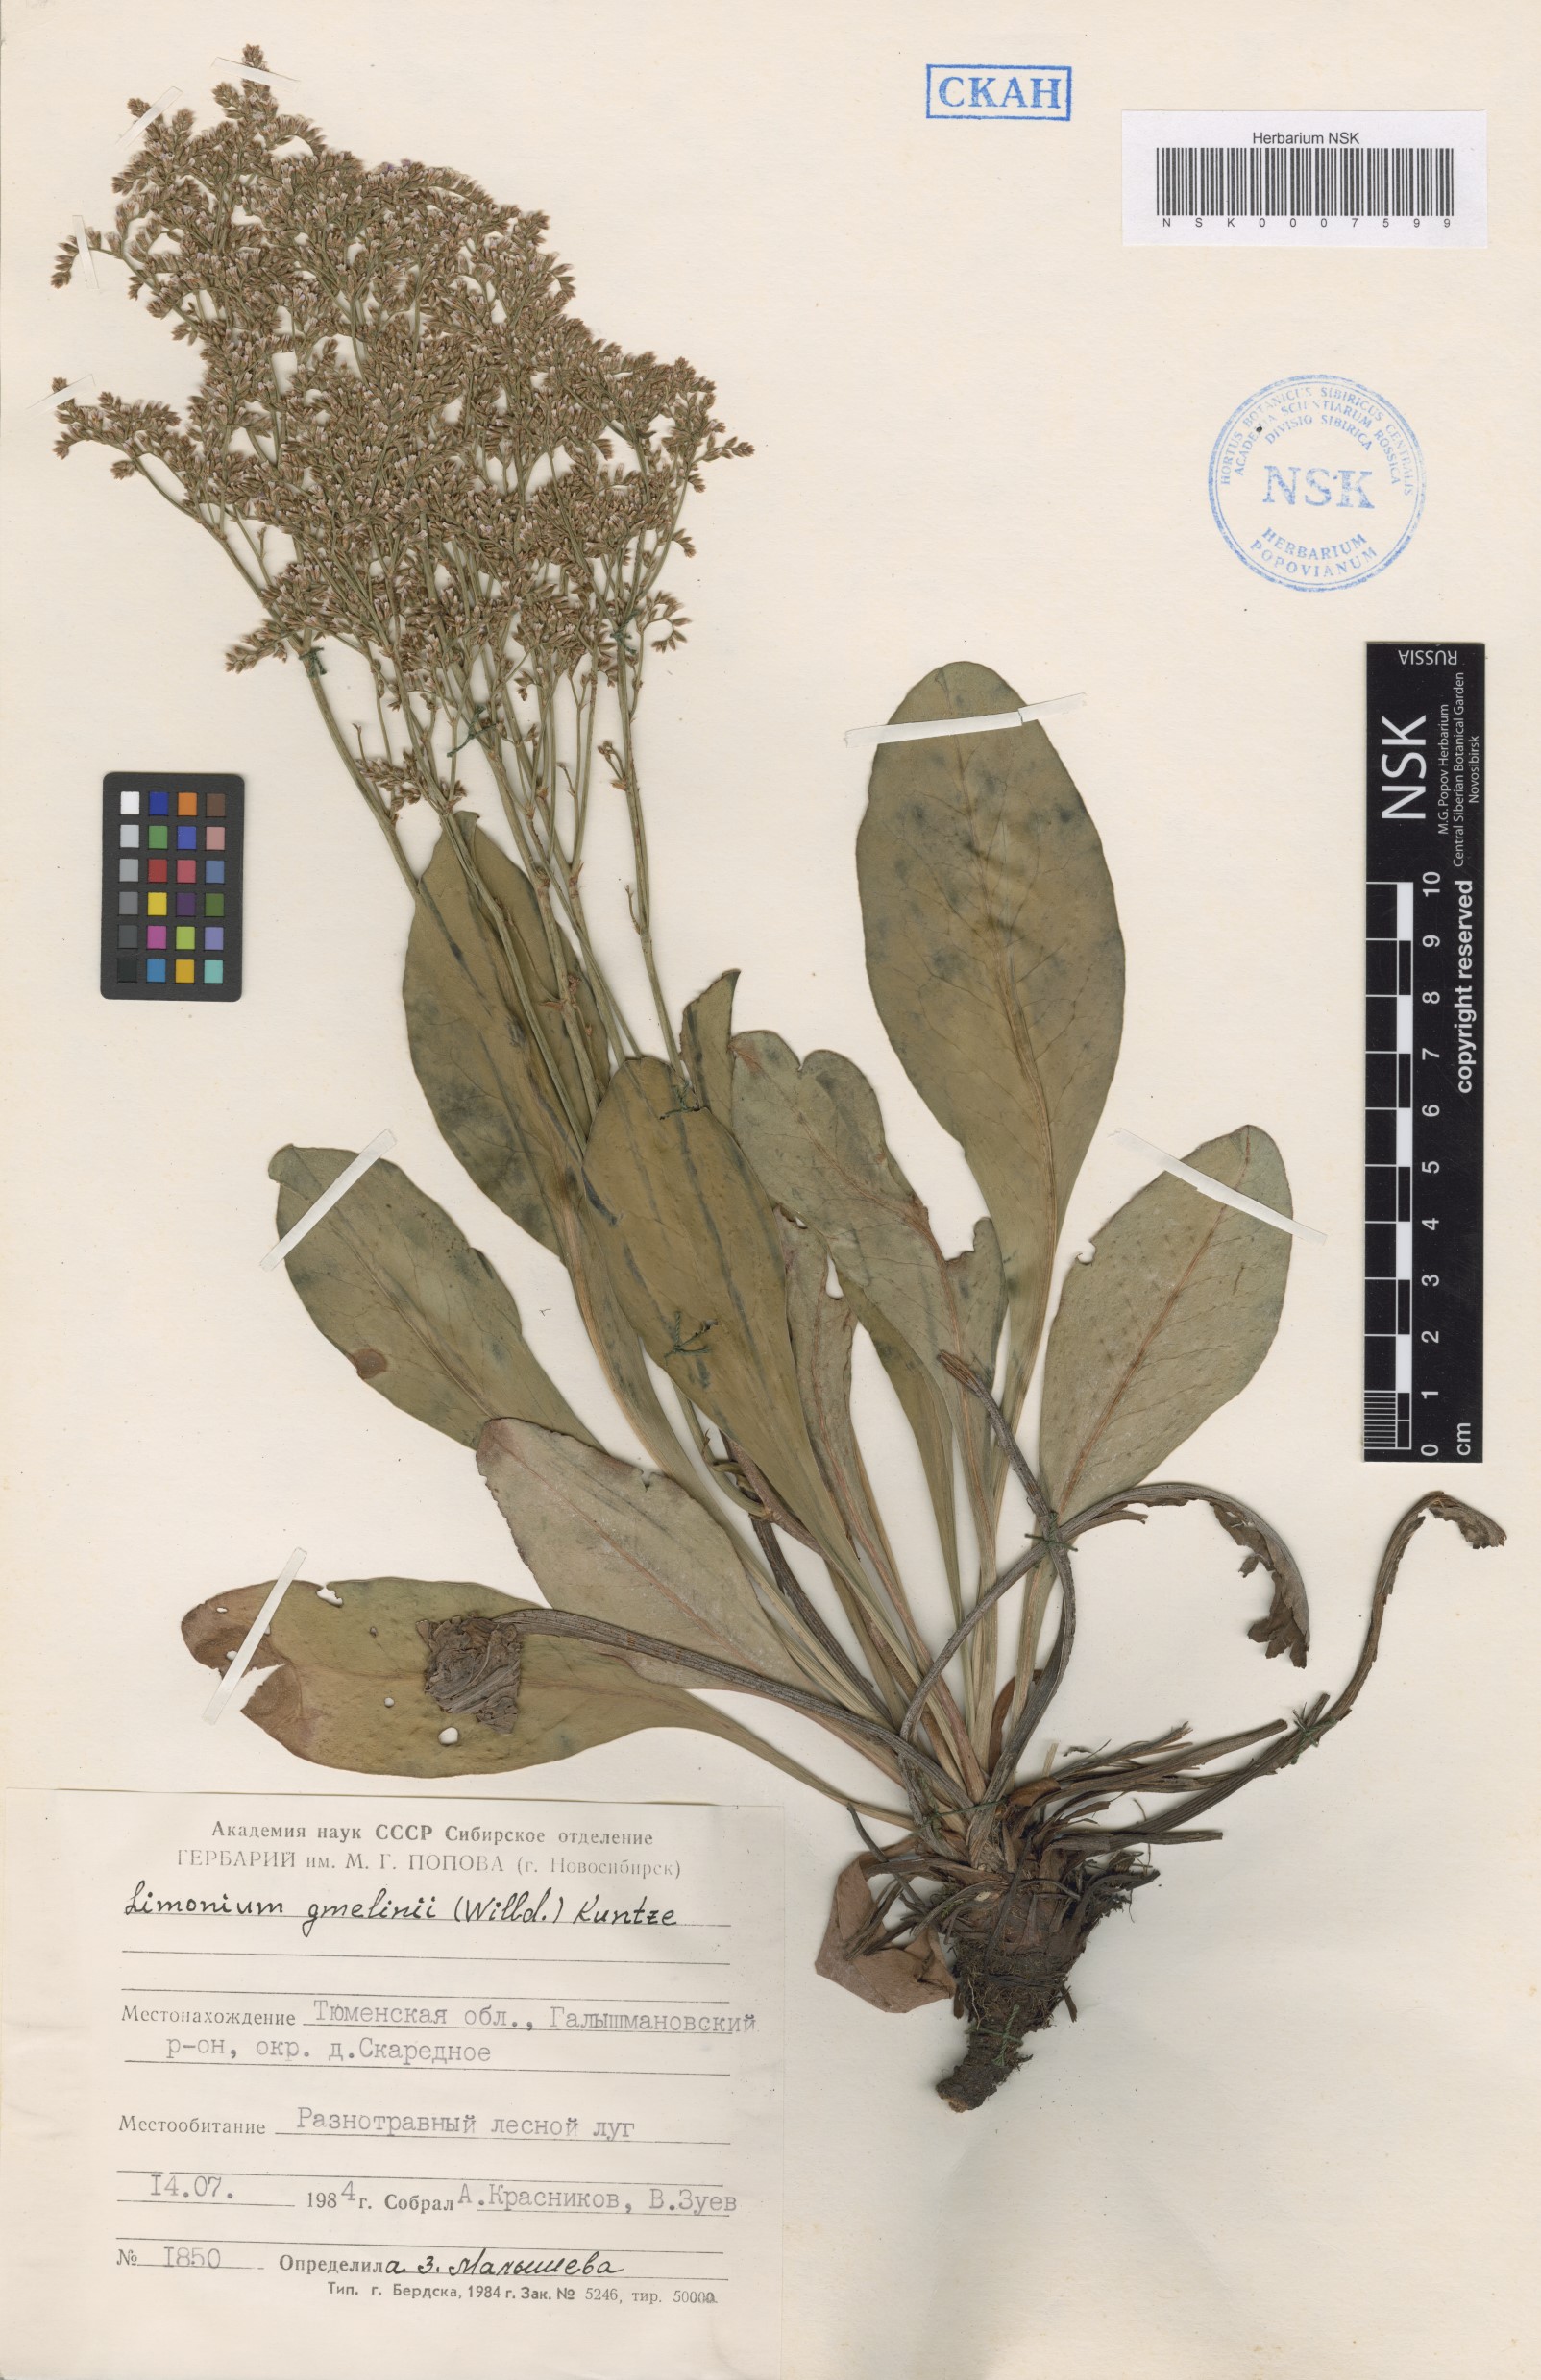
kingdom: Plantae
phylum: Tracheophyta
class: Magnoliopsida
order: Caryophyllales
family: Plumbaginaceae
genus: Limonium
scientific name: Limonium gmelini
